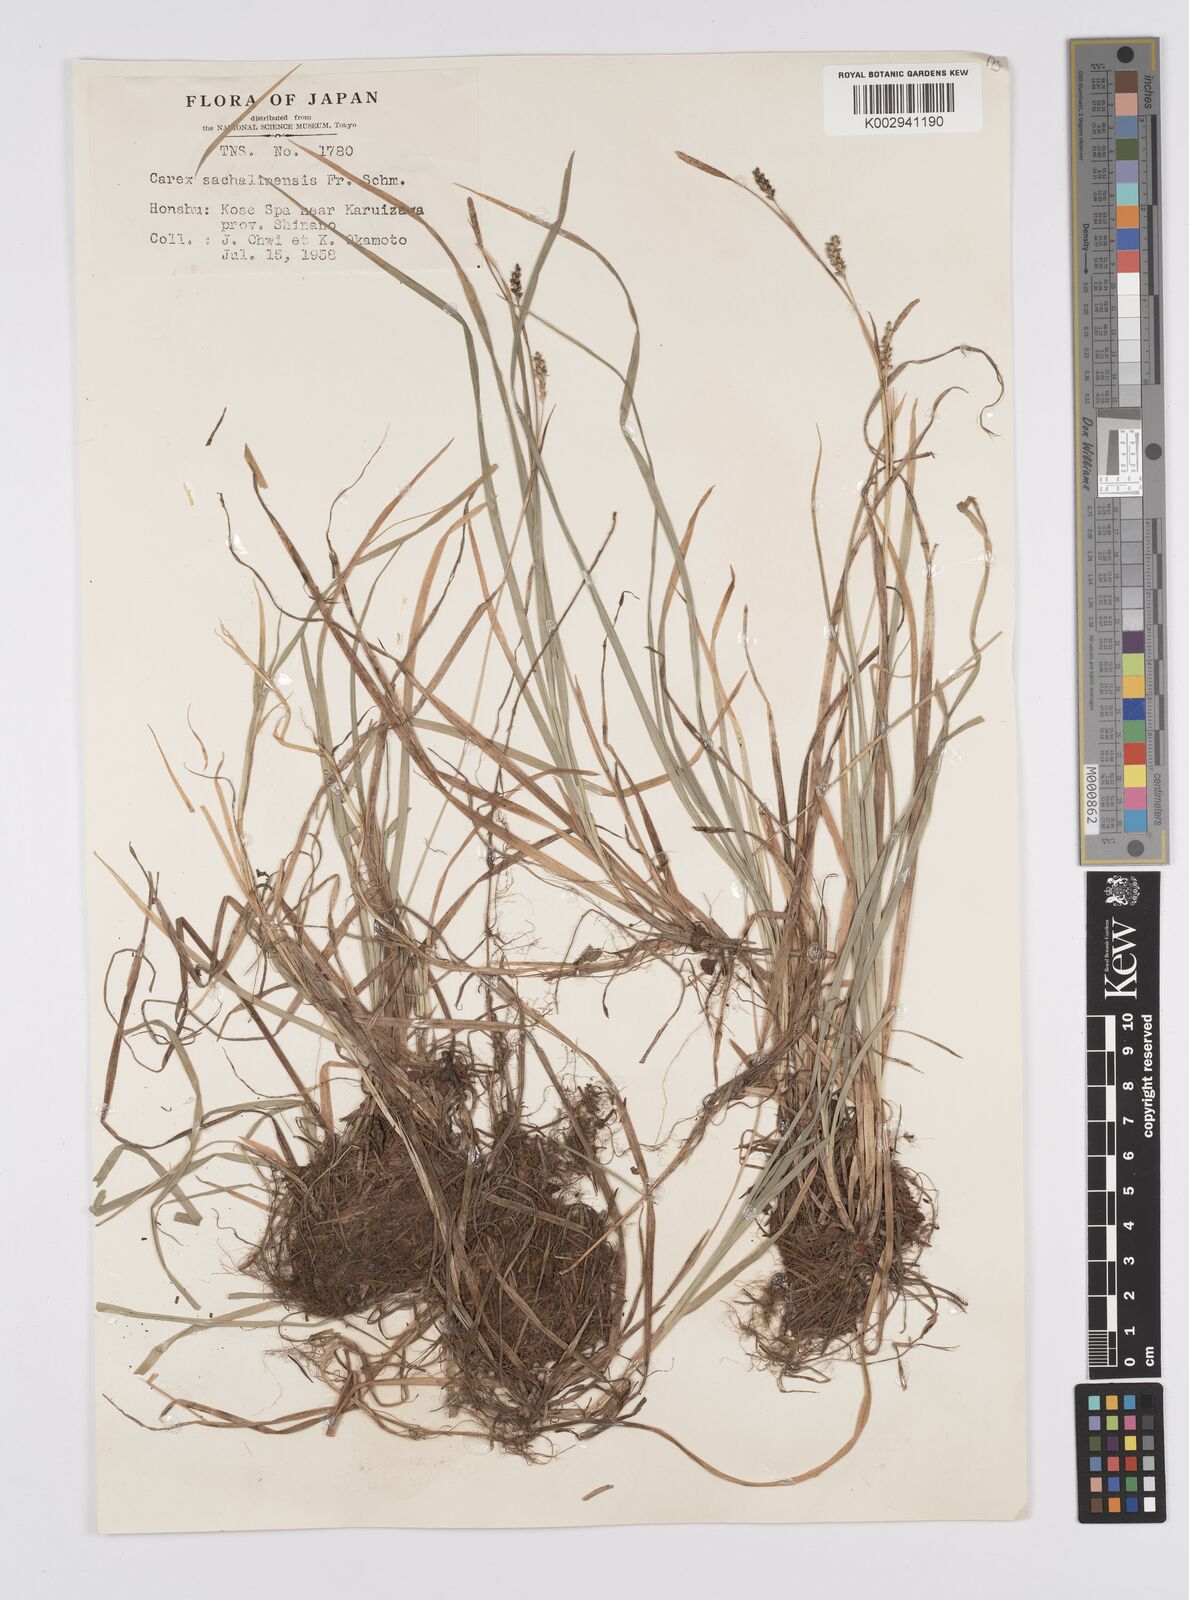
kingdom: Plantae
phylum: Tracheophyta
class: Liliopsida
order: Poales
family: Cyperaceae
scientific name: Cyperaceae
